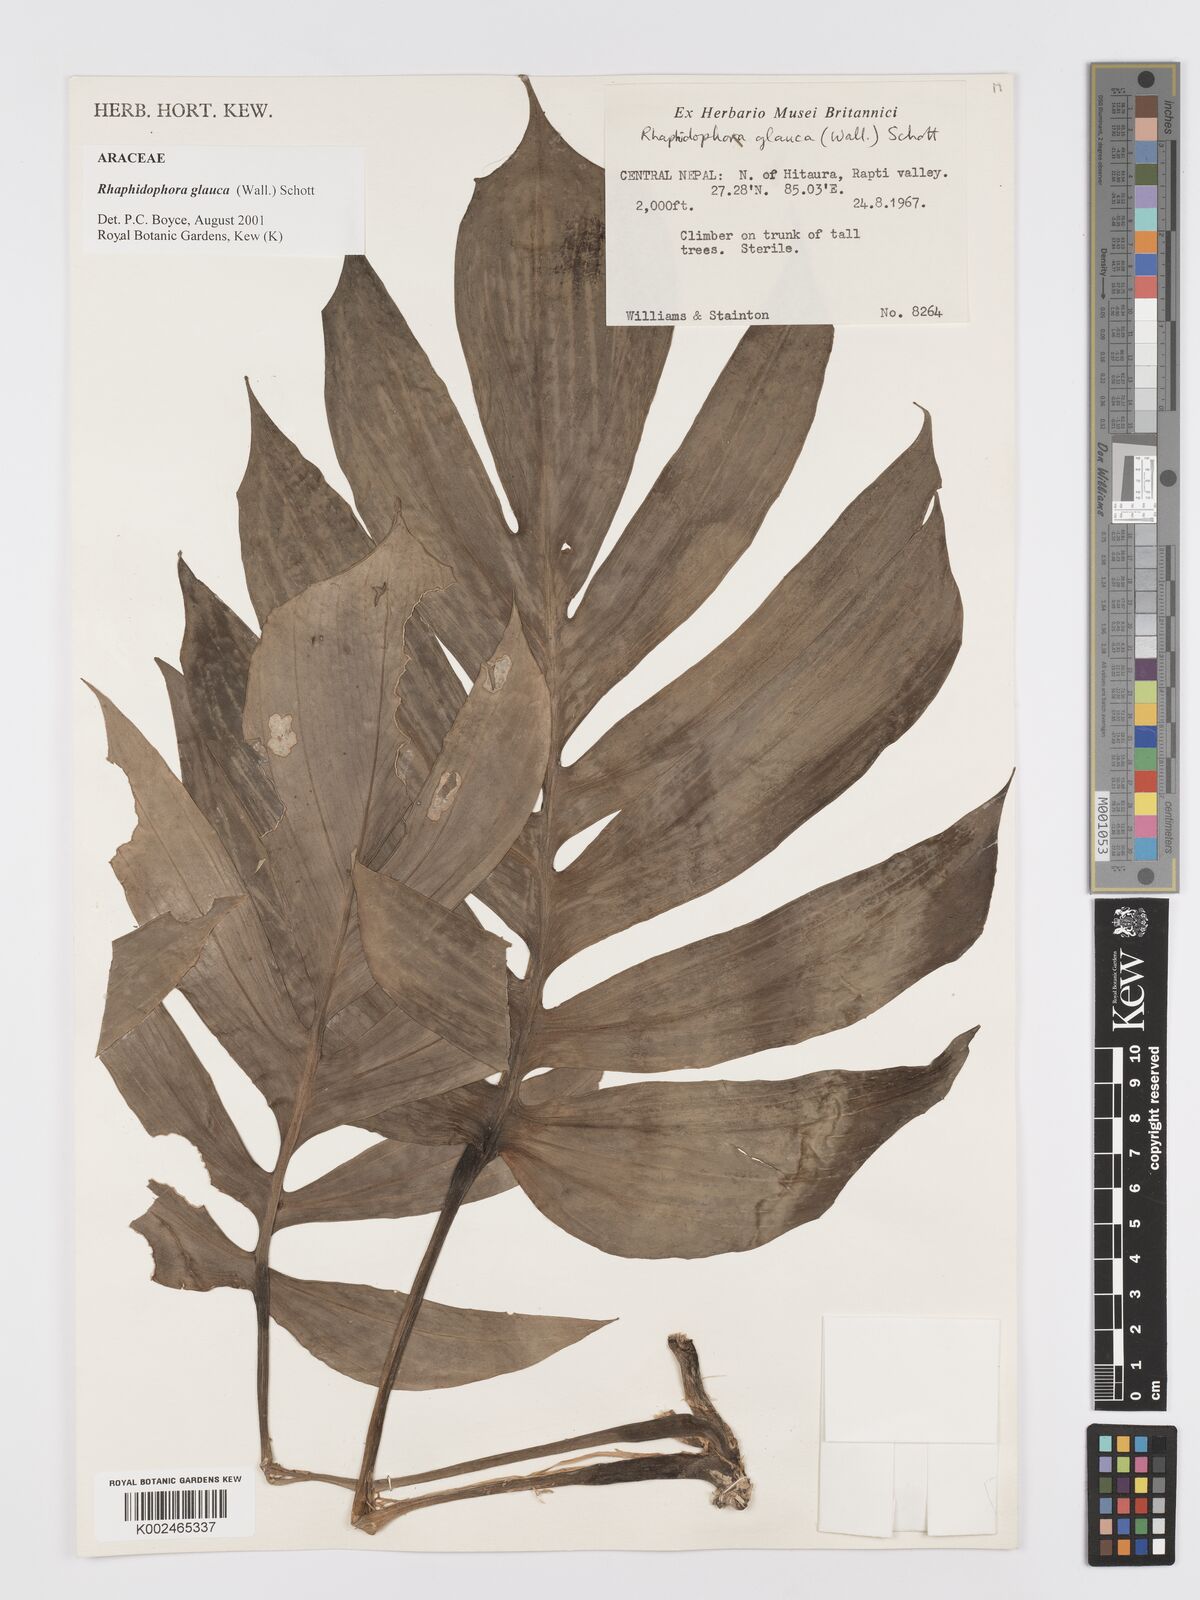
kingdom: Plantae
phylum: Tracheophyta
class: Liliopsida
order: Alismatales
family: Araceae
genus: Rhaphidophora
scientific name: Rhaphidophora glauca
